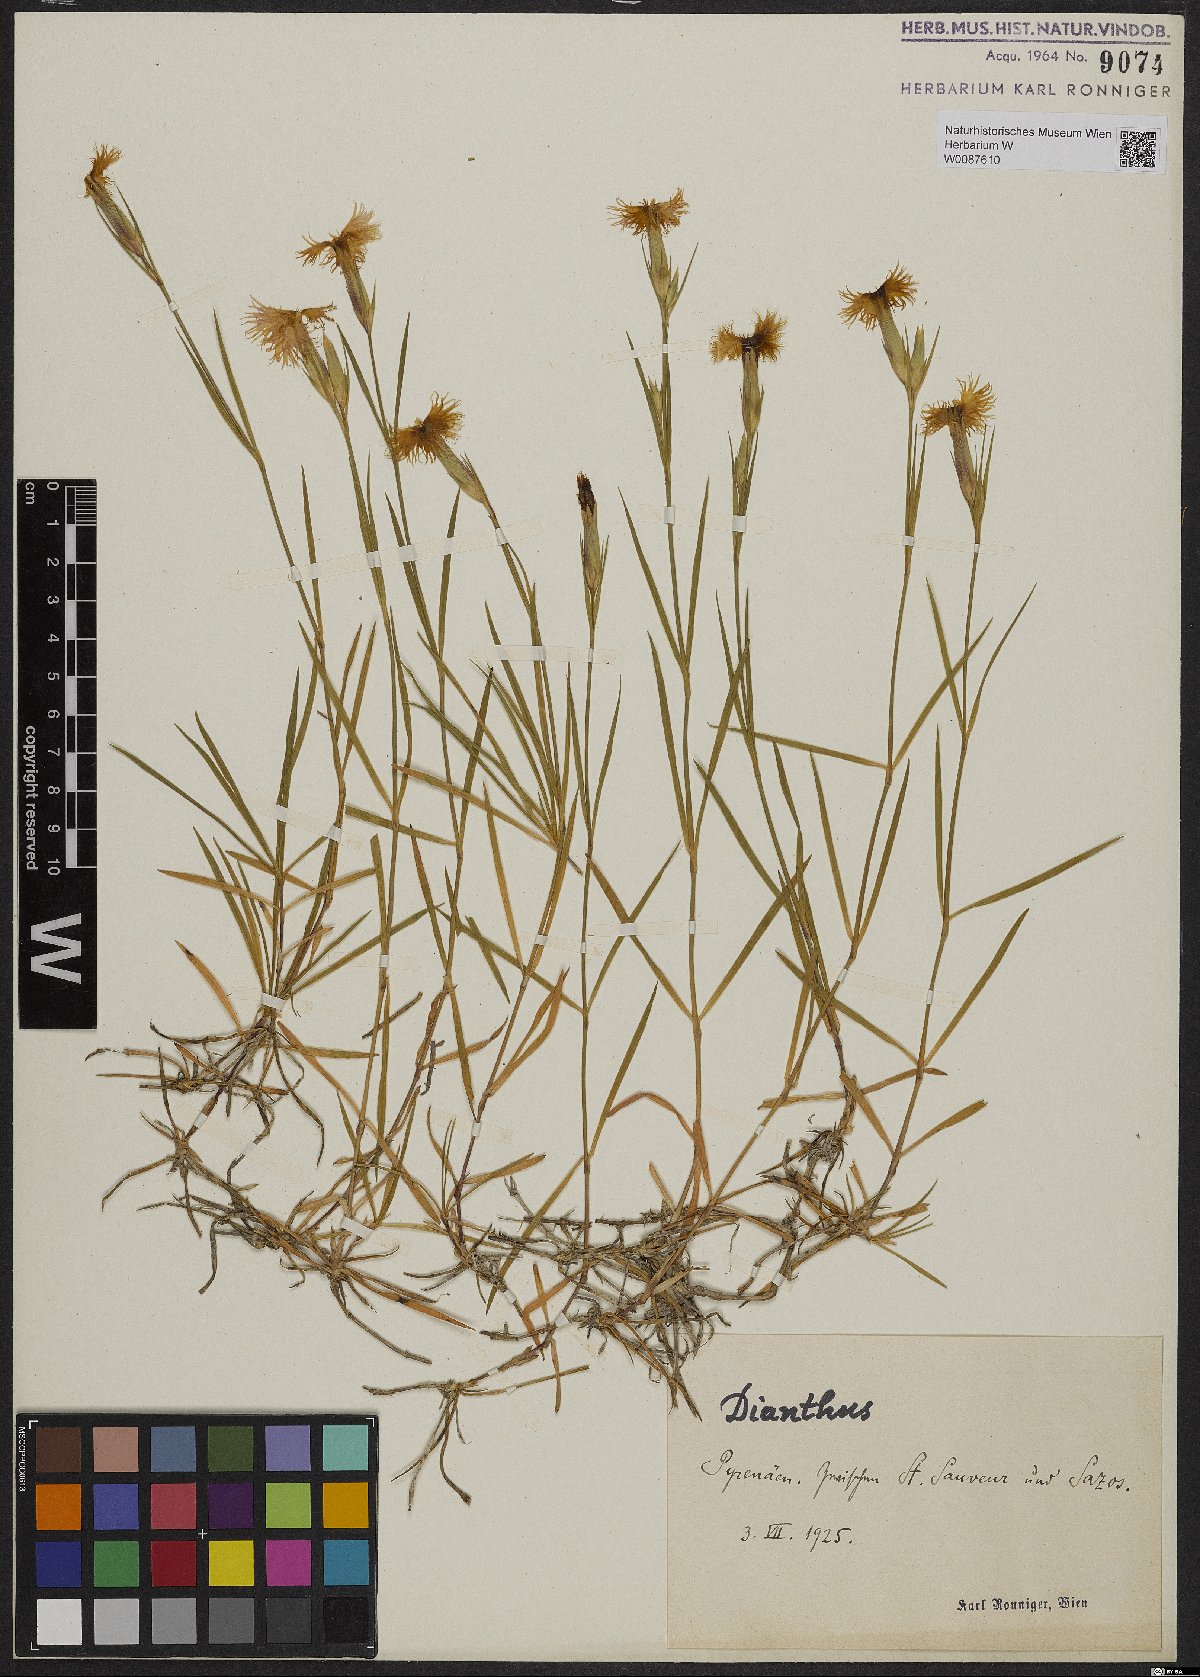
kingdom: Plantae
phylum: Tracheophyta
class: Magnoliopsida
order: Caryophyllales
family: Caryophyllaceae
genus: Dianthus
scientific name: Dianthus
